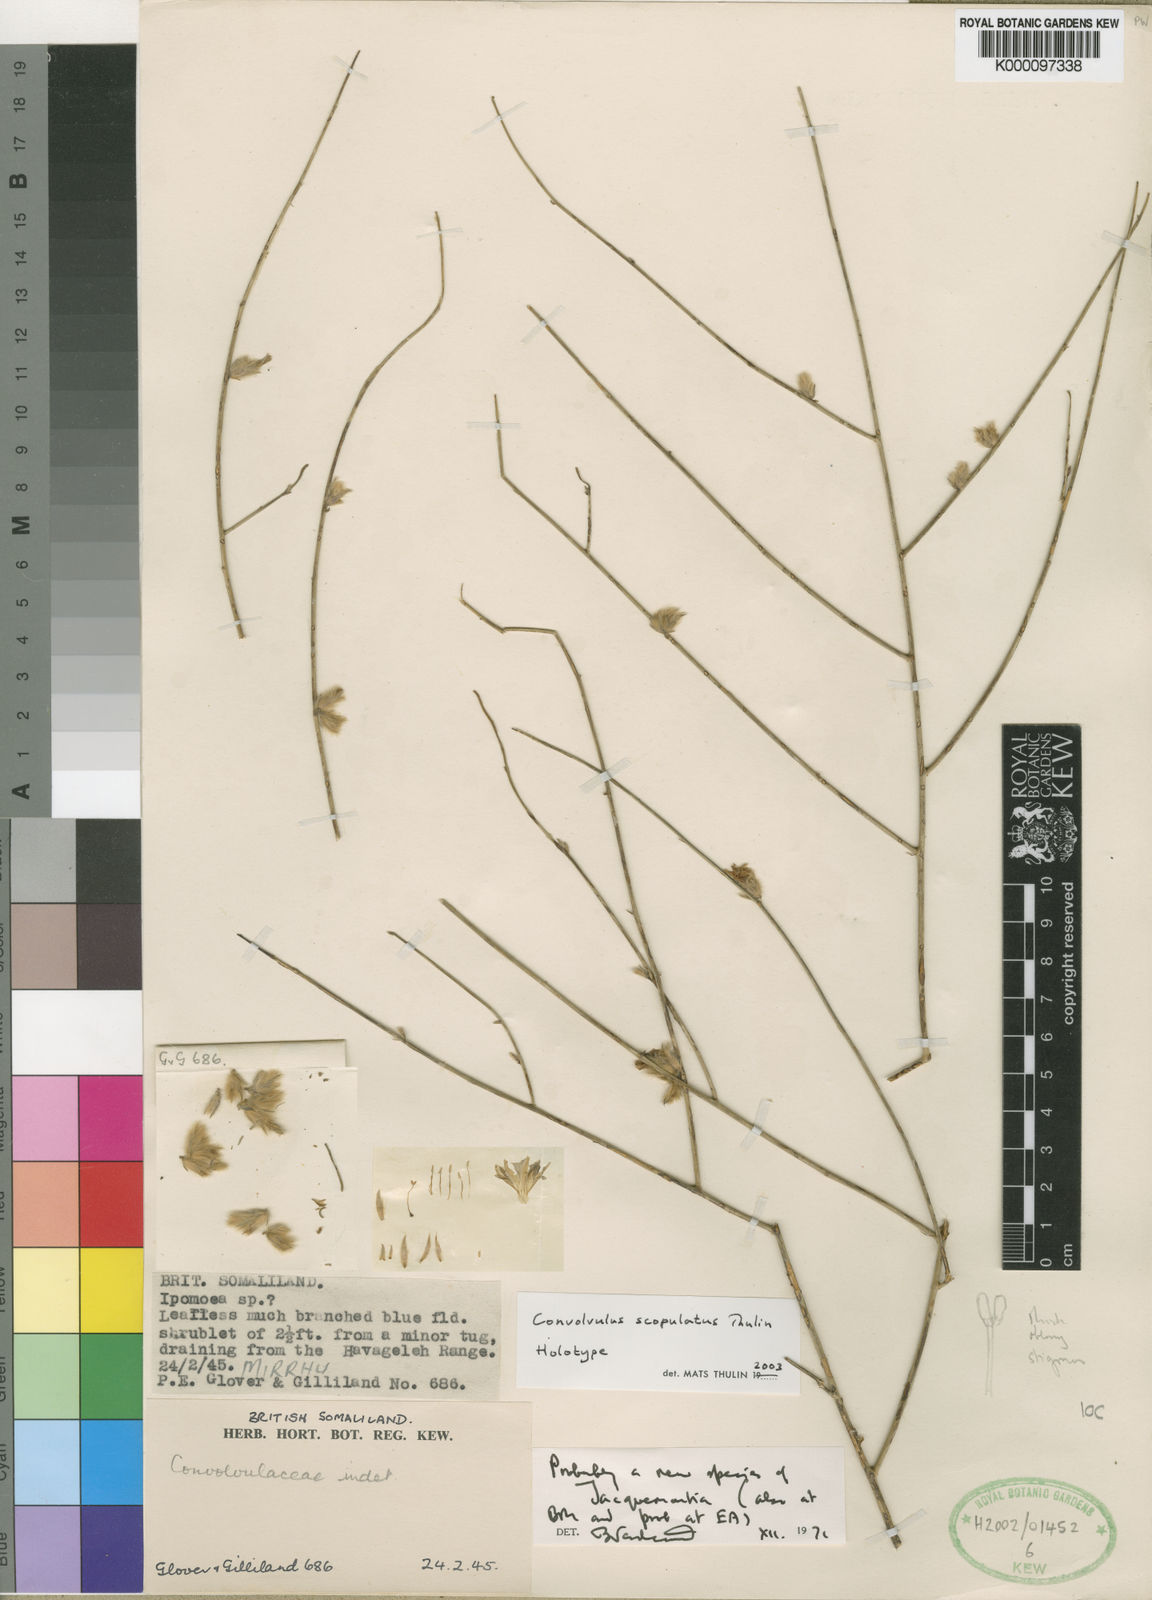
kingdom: Plantae
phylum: Tracheophyta
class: Magnoliopsida
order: Solanales
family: Convolvulaceae
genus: Convolvulus
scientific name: Convolvulus scopulatus
